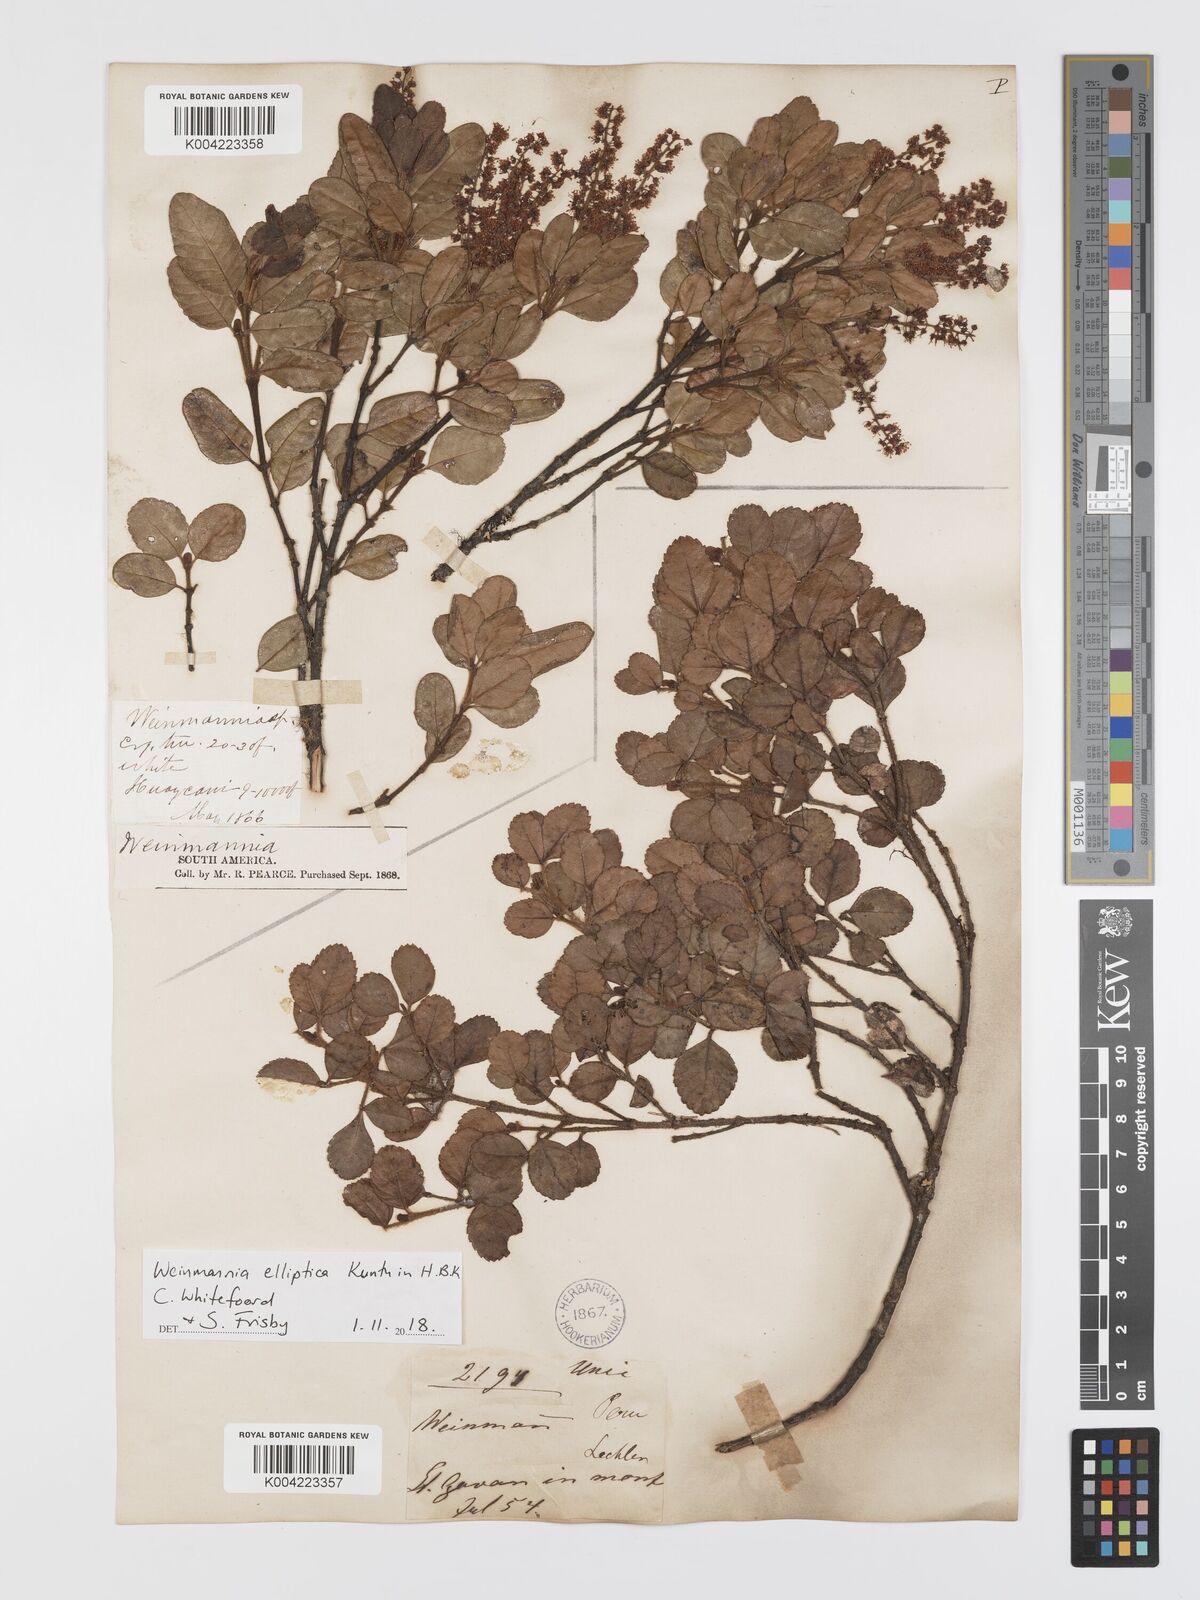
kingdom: Plantae
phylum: Tracheophyta
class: Magnoliopsida
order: Oxalidales
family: Cunoniaceae
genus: Weinmannia
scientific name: Weinmannia elliptica
